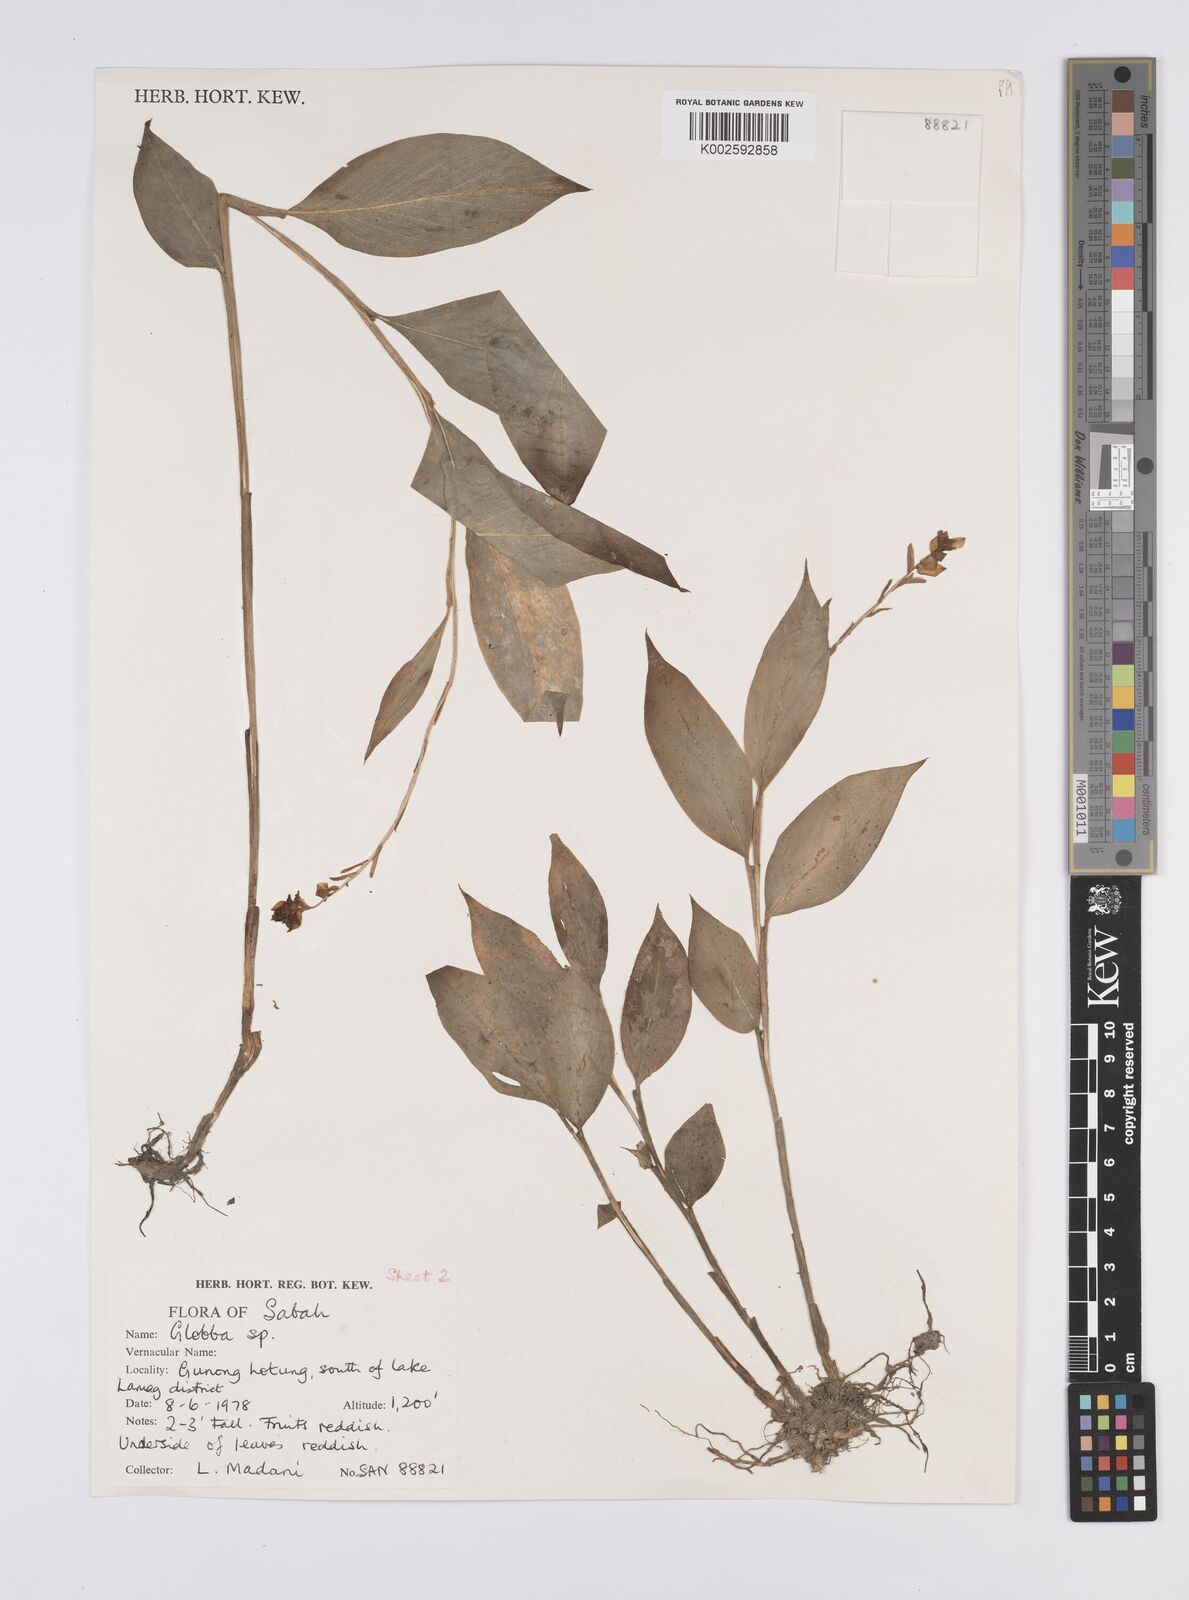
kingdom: Plantae
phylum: Tracheophyta
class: Liliopsida
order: Zingiberales
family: Zingiberaceae
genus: Globba
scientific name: Globba atrosanguinea
